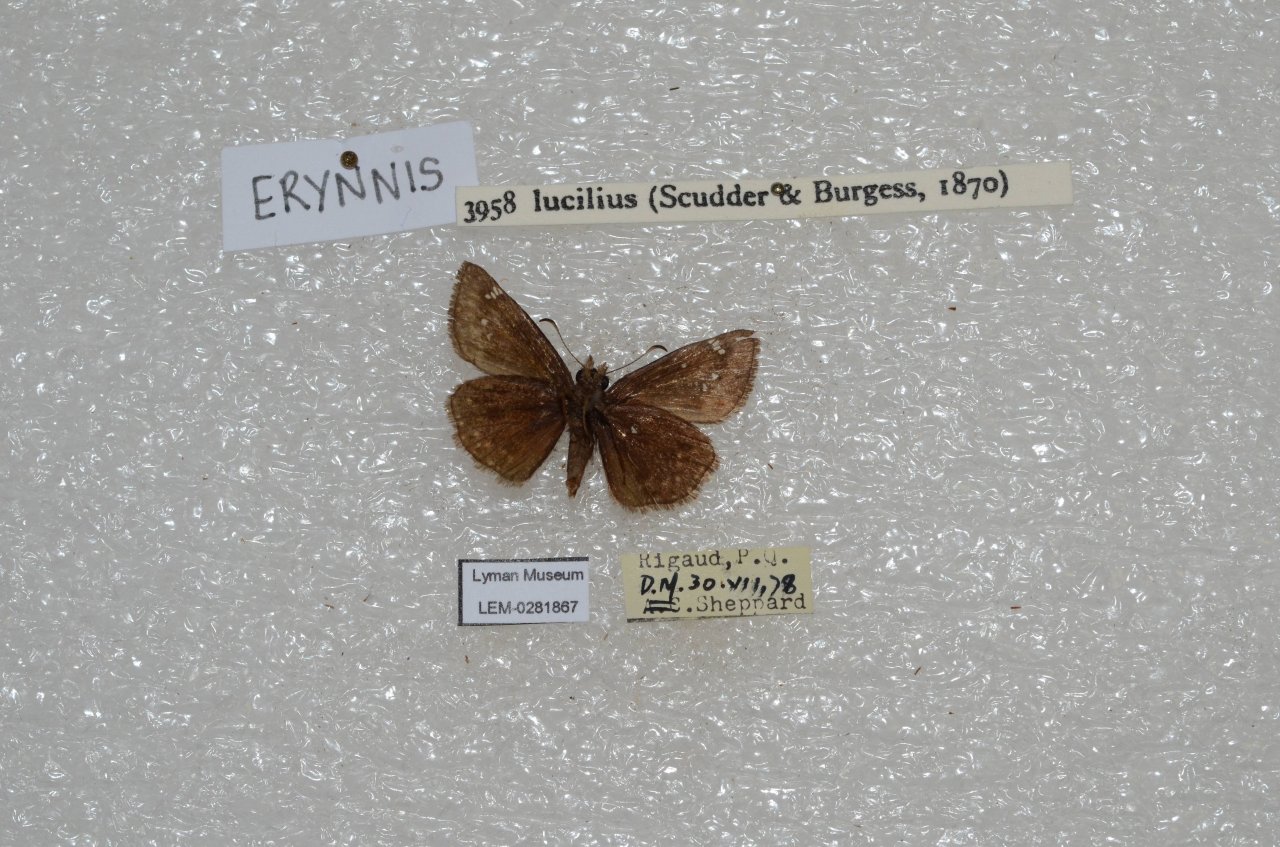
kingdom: Animalia
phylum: Arthropoda
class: Insecta
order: Lepidoptera
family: Hesperiidae
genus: Gesta
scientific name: Gesta
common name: Columbine Duskywing
